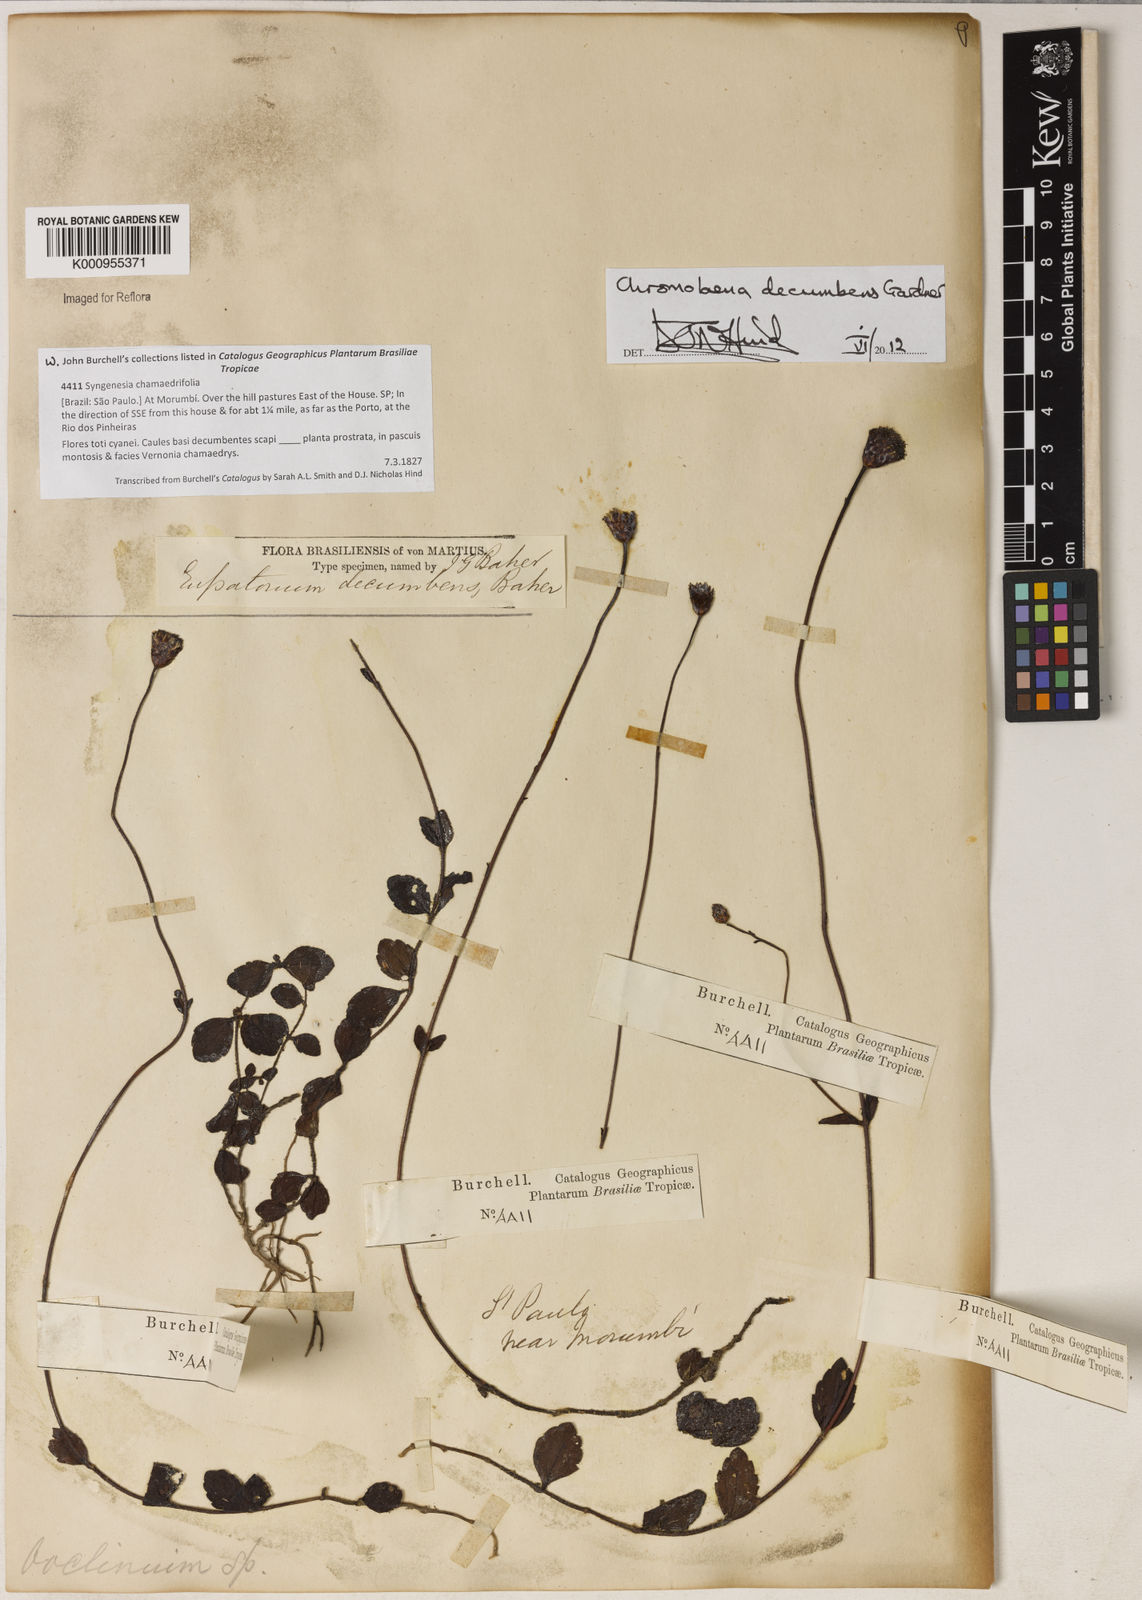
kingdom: Plantae
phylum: Tracheophyta
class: Magnoliopsida
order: Asterales
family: Asteraceae
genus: Praxelis
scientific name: Praxelis decumbens
